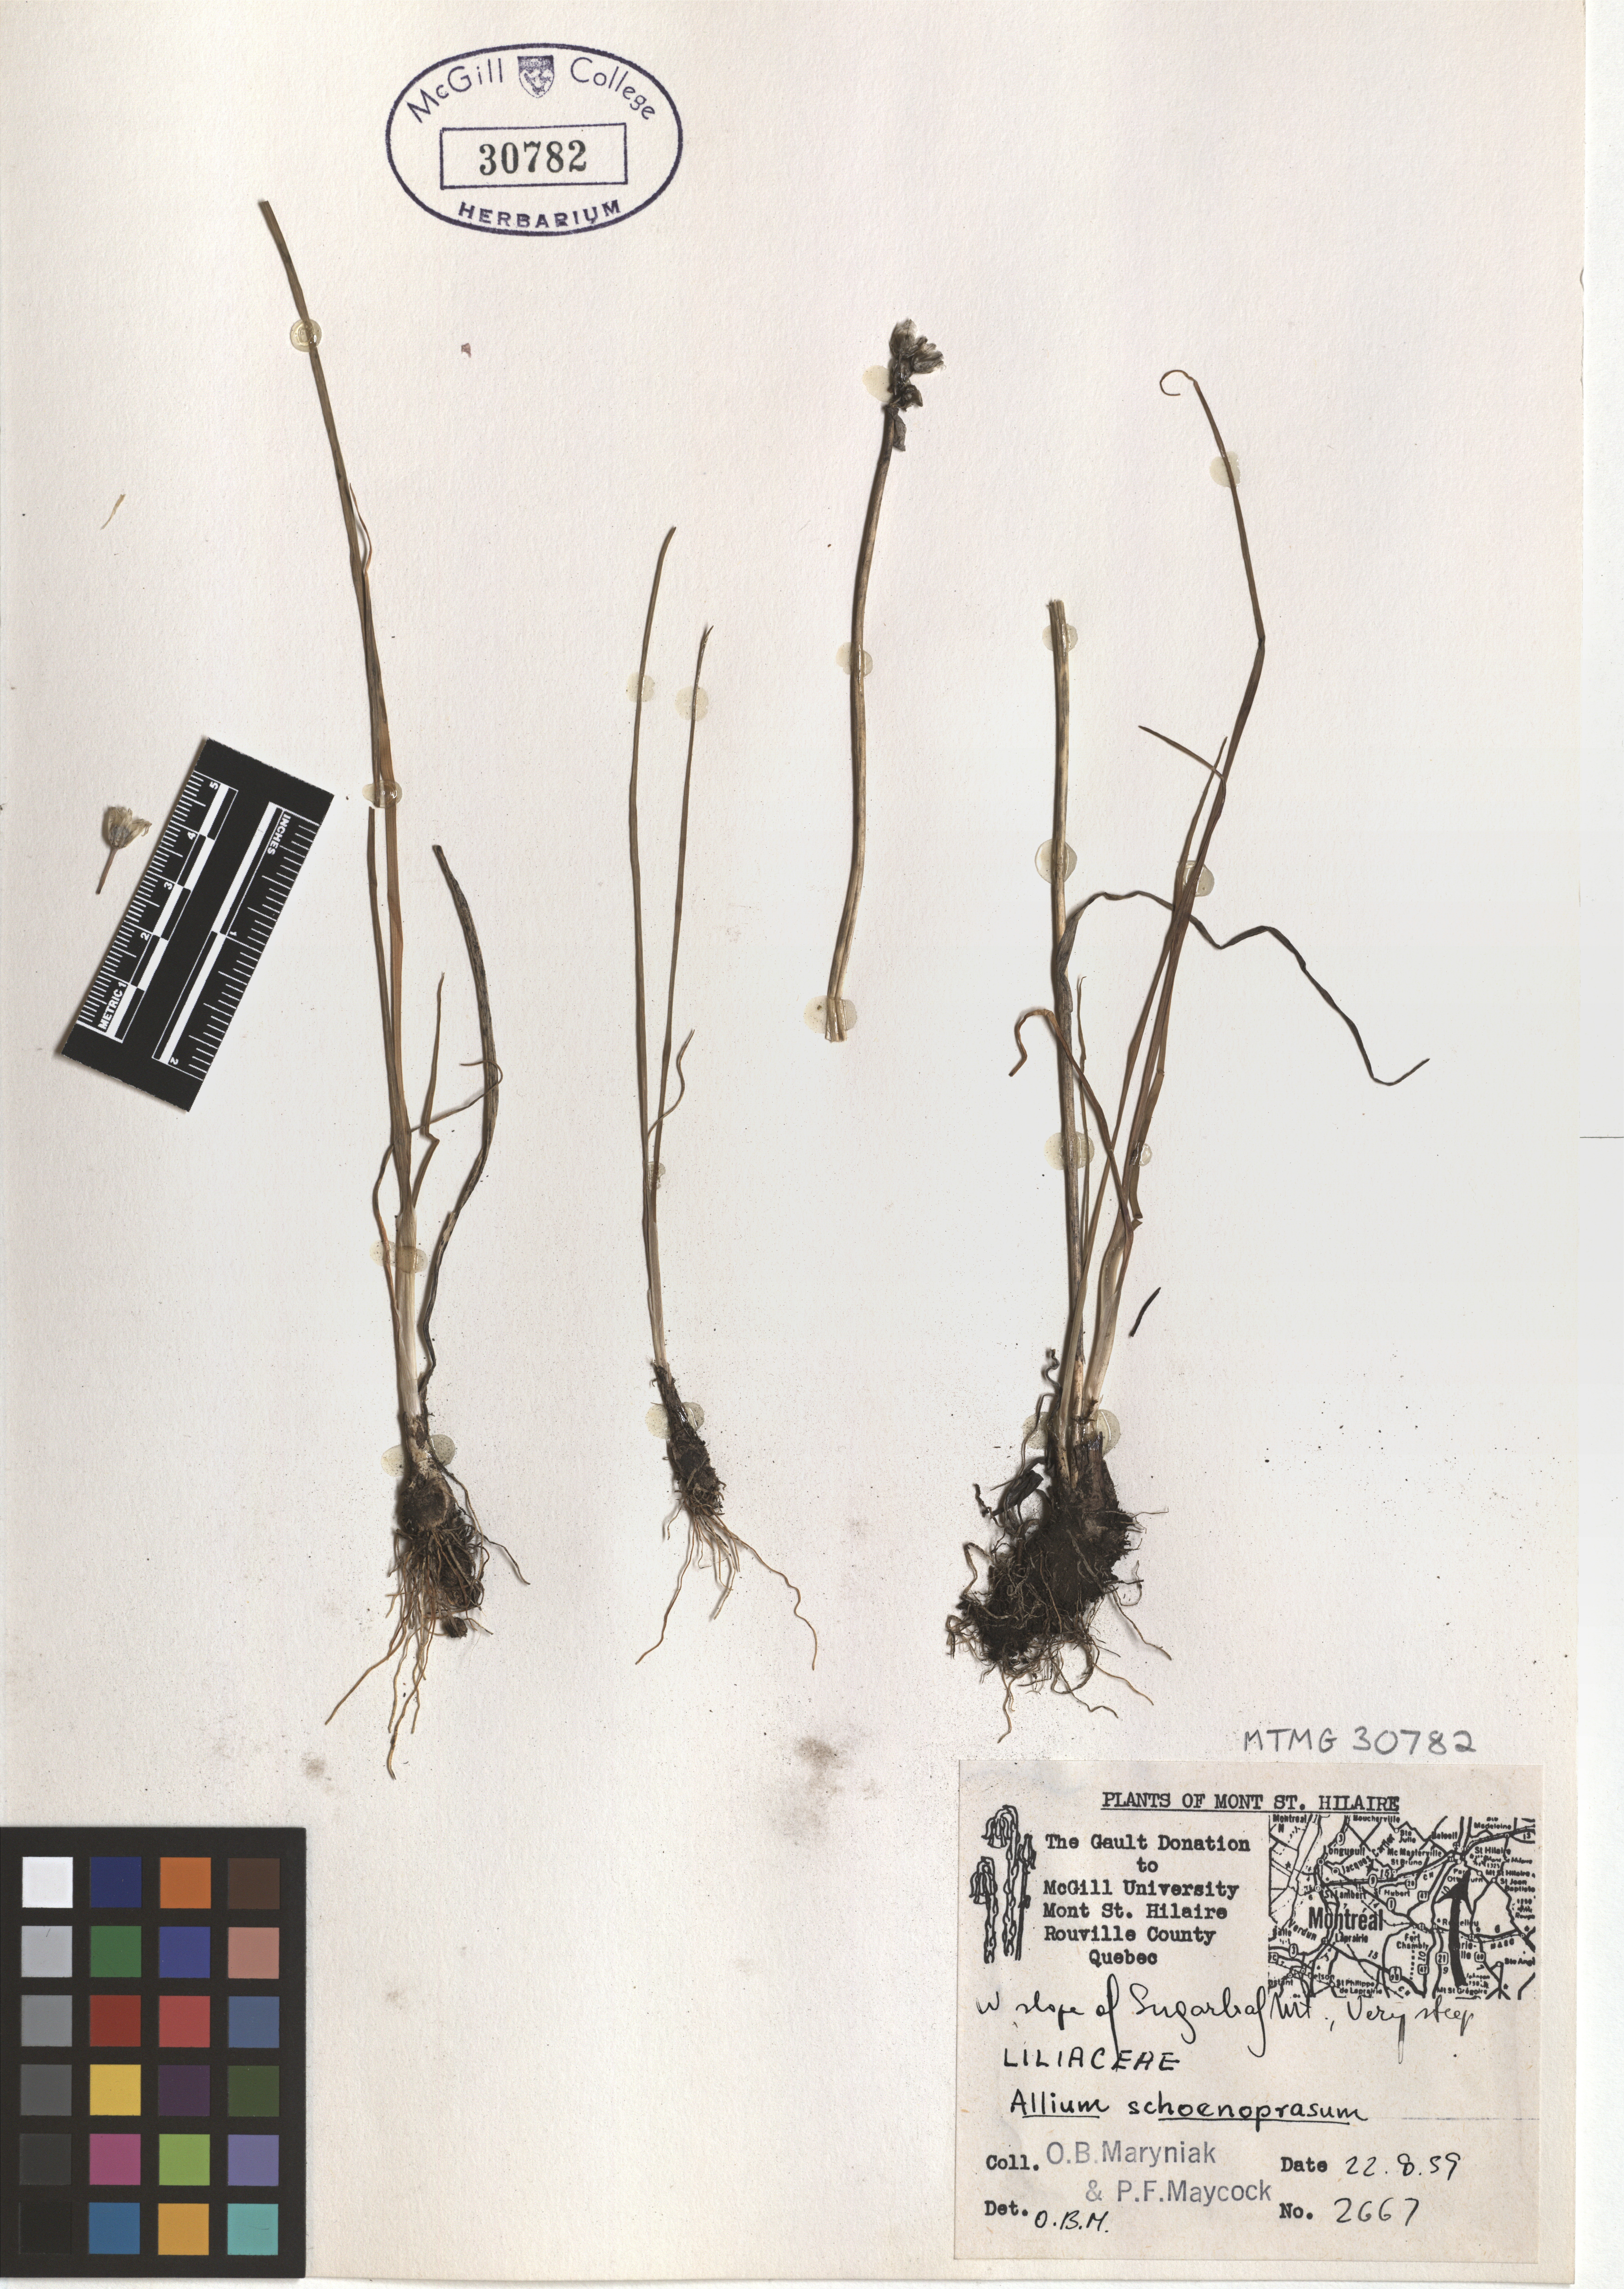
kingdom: Plantae
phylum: Tracheophyta
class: Liliopsida
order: Asparagales
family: Amaryllidaceae
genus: Allium
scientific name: Allium schoenoprasum
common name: Chives
